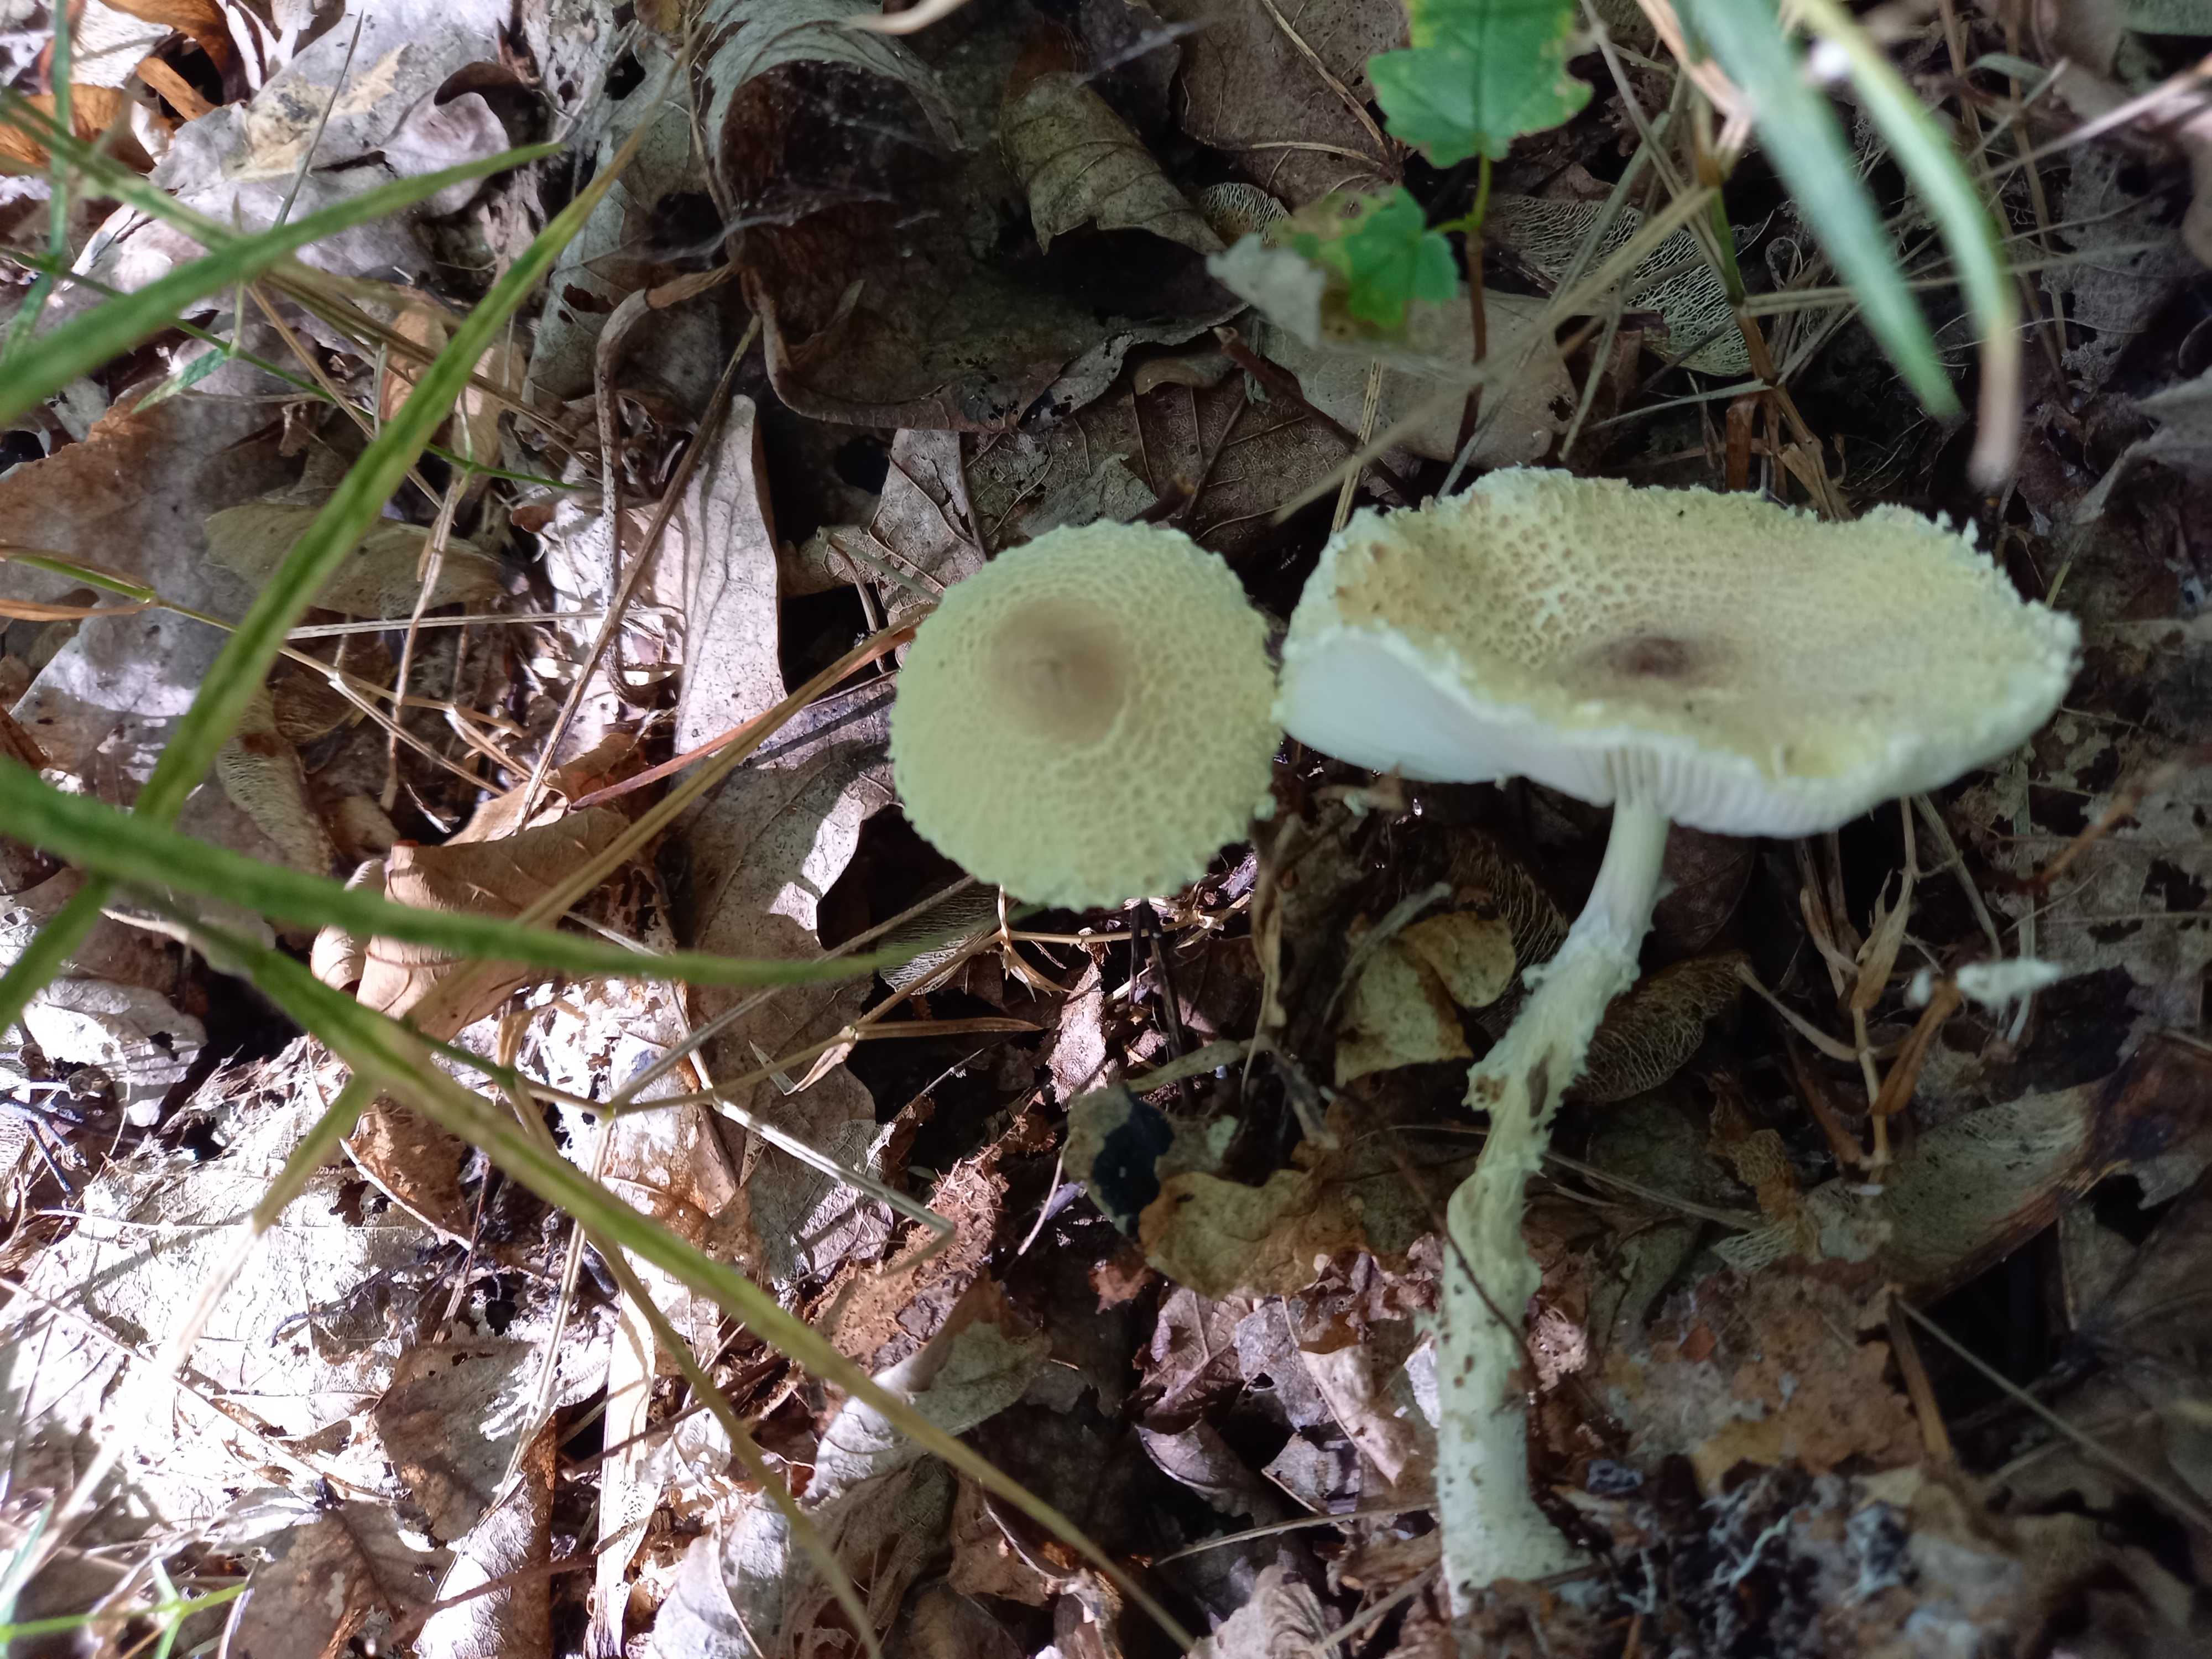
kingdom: Fungi
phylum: Basidiomycota
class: Agaricomycetes
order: Agaricales
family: Agaricaceae
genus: Lepiota
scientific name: Lepiota clypeolaria
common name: flosset parasolhat
